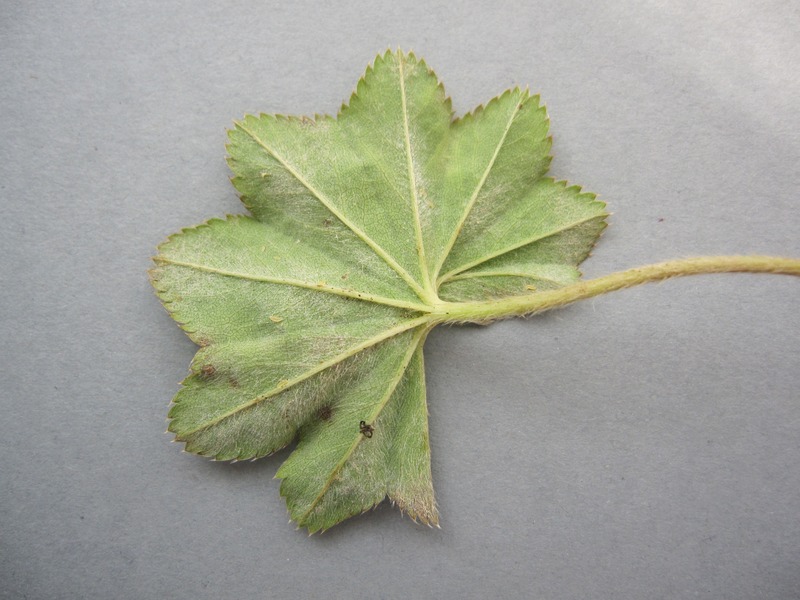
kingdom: Fungi
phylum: Ascomycota
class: Leotiomycetes
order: Helotiales
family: Erysiphaceae
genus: Podosphaera
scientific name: Podosphaera aphanis
